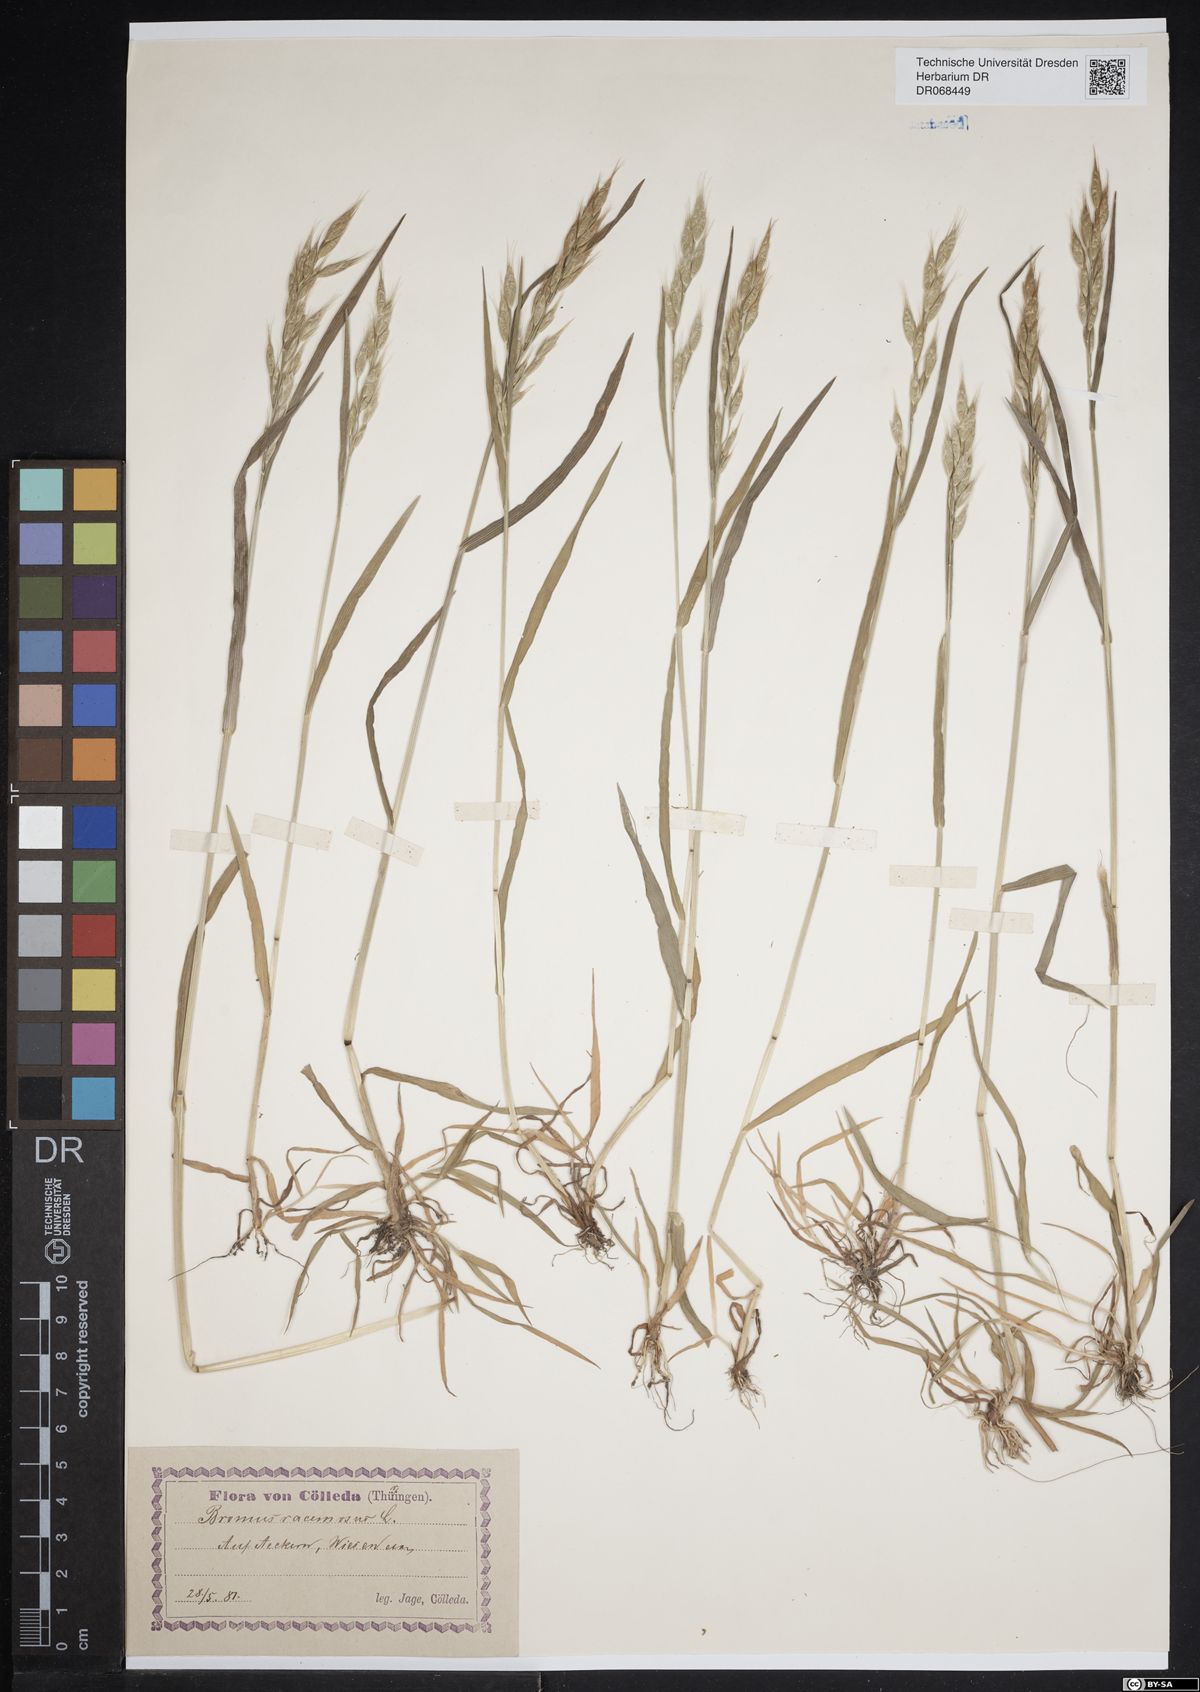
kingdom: Plantae
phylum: Tracheophyta
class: Liliopsida
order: Poales
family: Poaceae
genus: Bromus
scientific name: Bromus racemosus
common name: Bald brome
